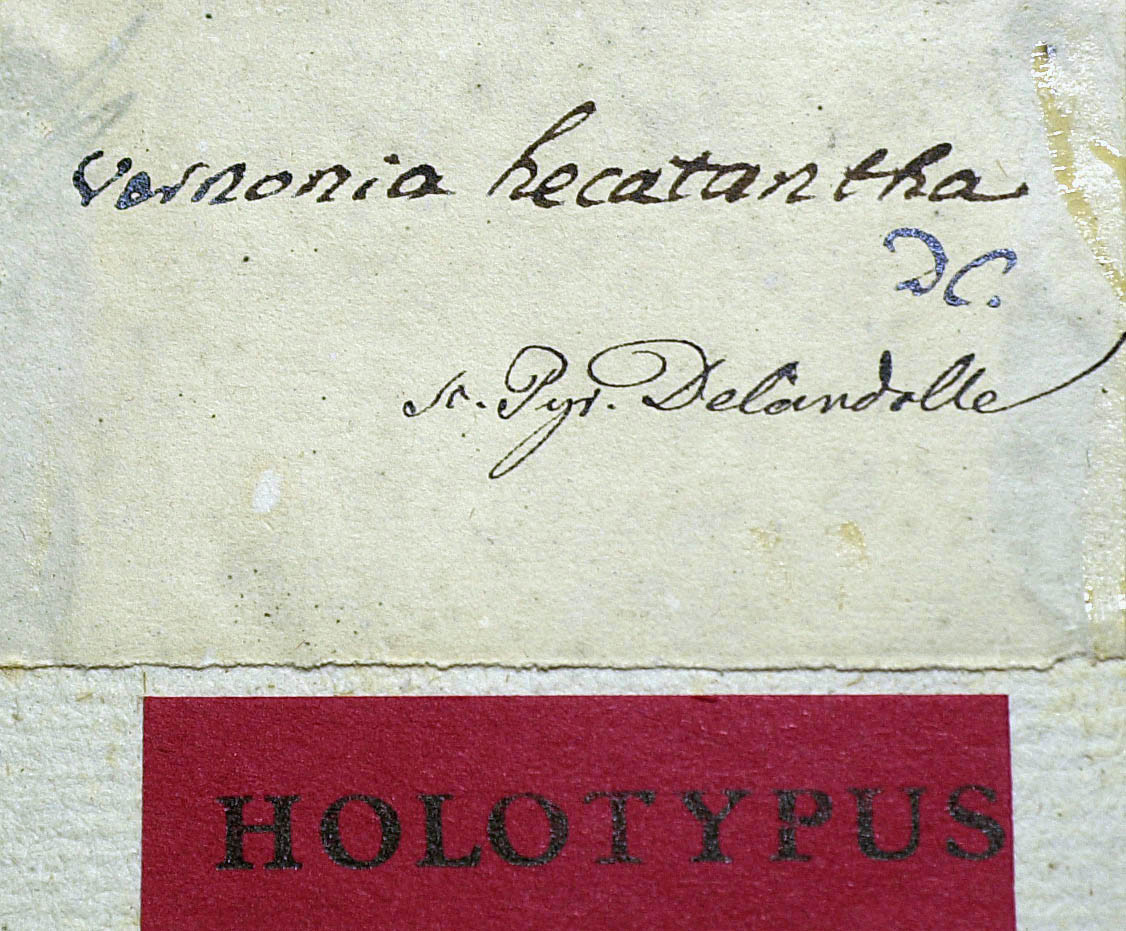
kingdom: Plantae
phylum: Tracheophyta
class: Magnoliopsida
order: Asterales
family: Asteraceae
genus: Lessingianthus
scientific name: Lessingianthus coriaceus
